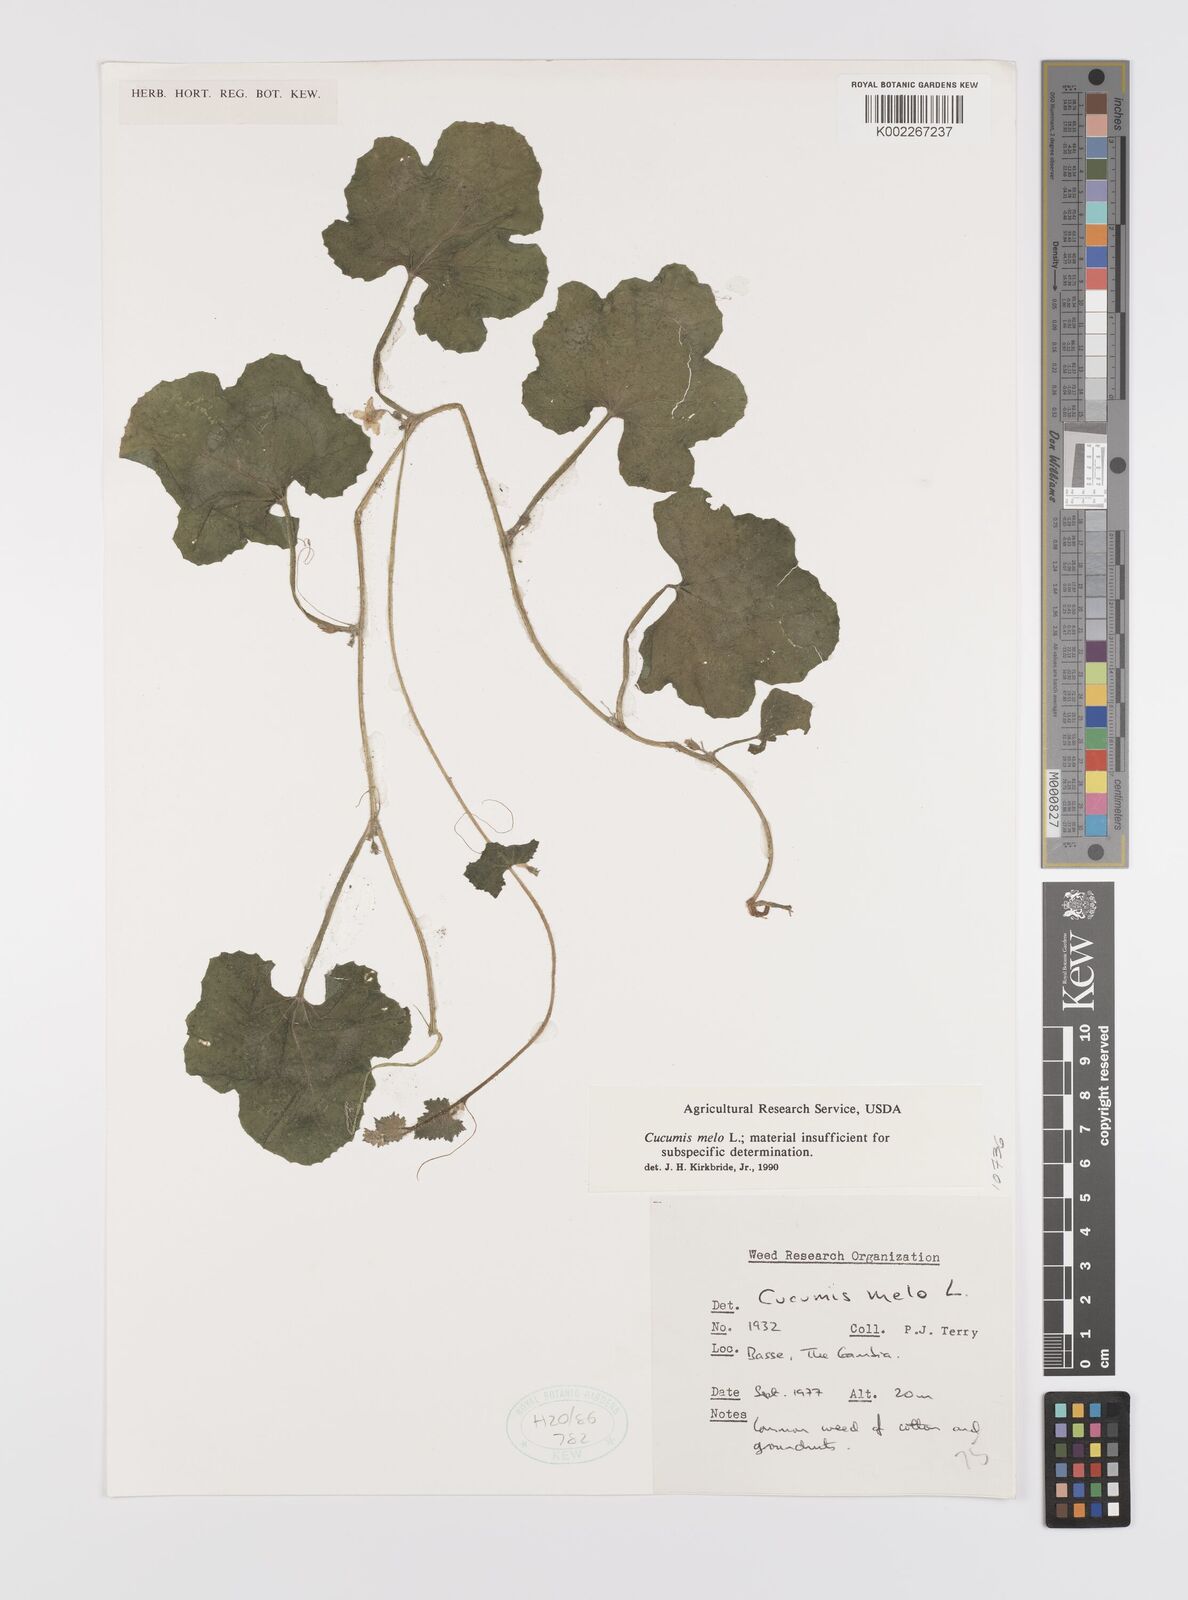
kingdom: Plantae
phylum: Tracheophyta
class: Magnoliopsida
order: Cucurbitales
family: Cucurbitaceae
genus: Cucumis
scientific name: Cucumis melo
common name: Melon
